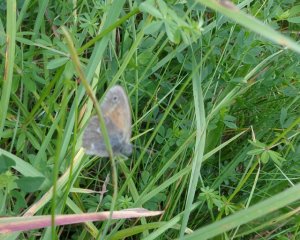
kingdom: Animalia
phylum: Arthropoda
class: Insecta
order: Lepidoptera
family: Nymphalidae
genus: Coenonympha
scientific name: Coenonympha tullia
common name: Large Heath
